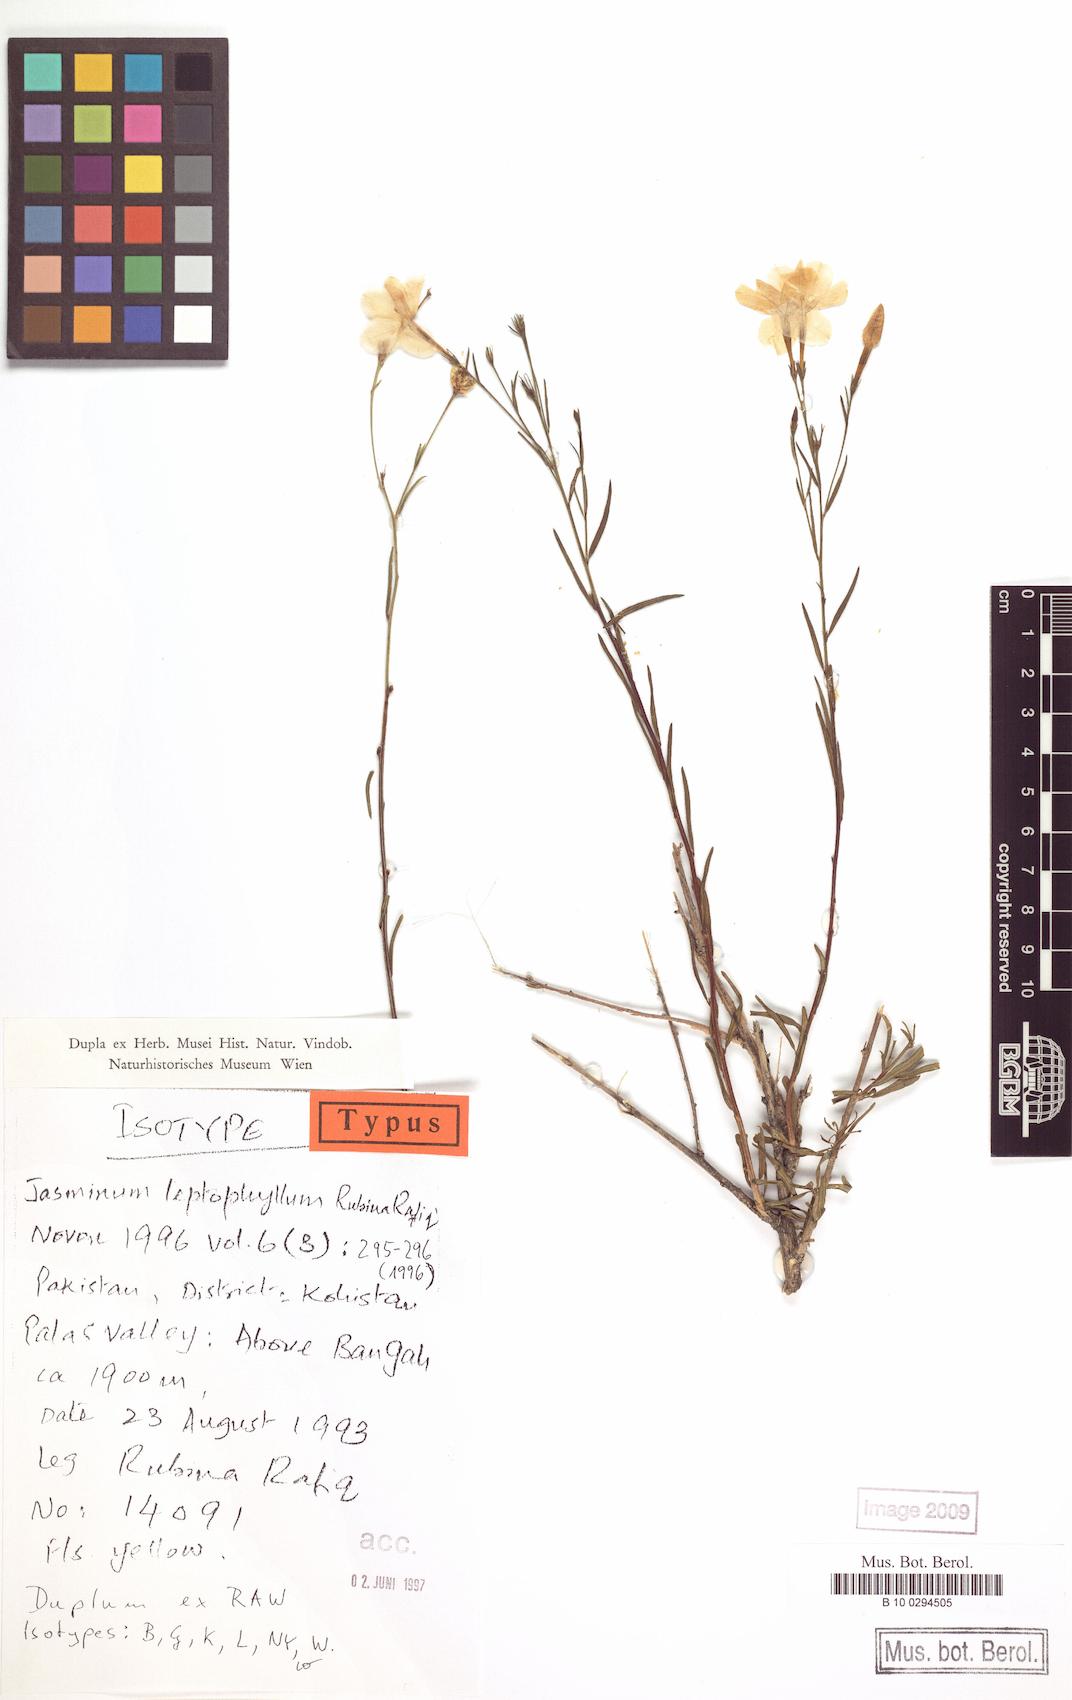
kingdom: Plantae
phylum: Tracheophyta
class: Magnoliopsida
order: Lamiales
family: Oleaceae
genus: Chrysojasminum
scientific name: Chrysojasminum leptophyllum
